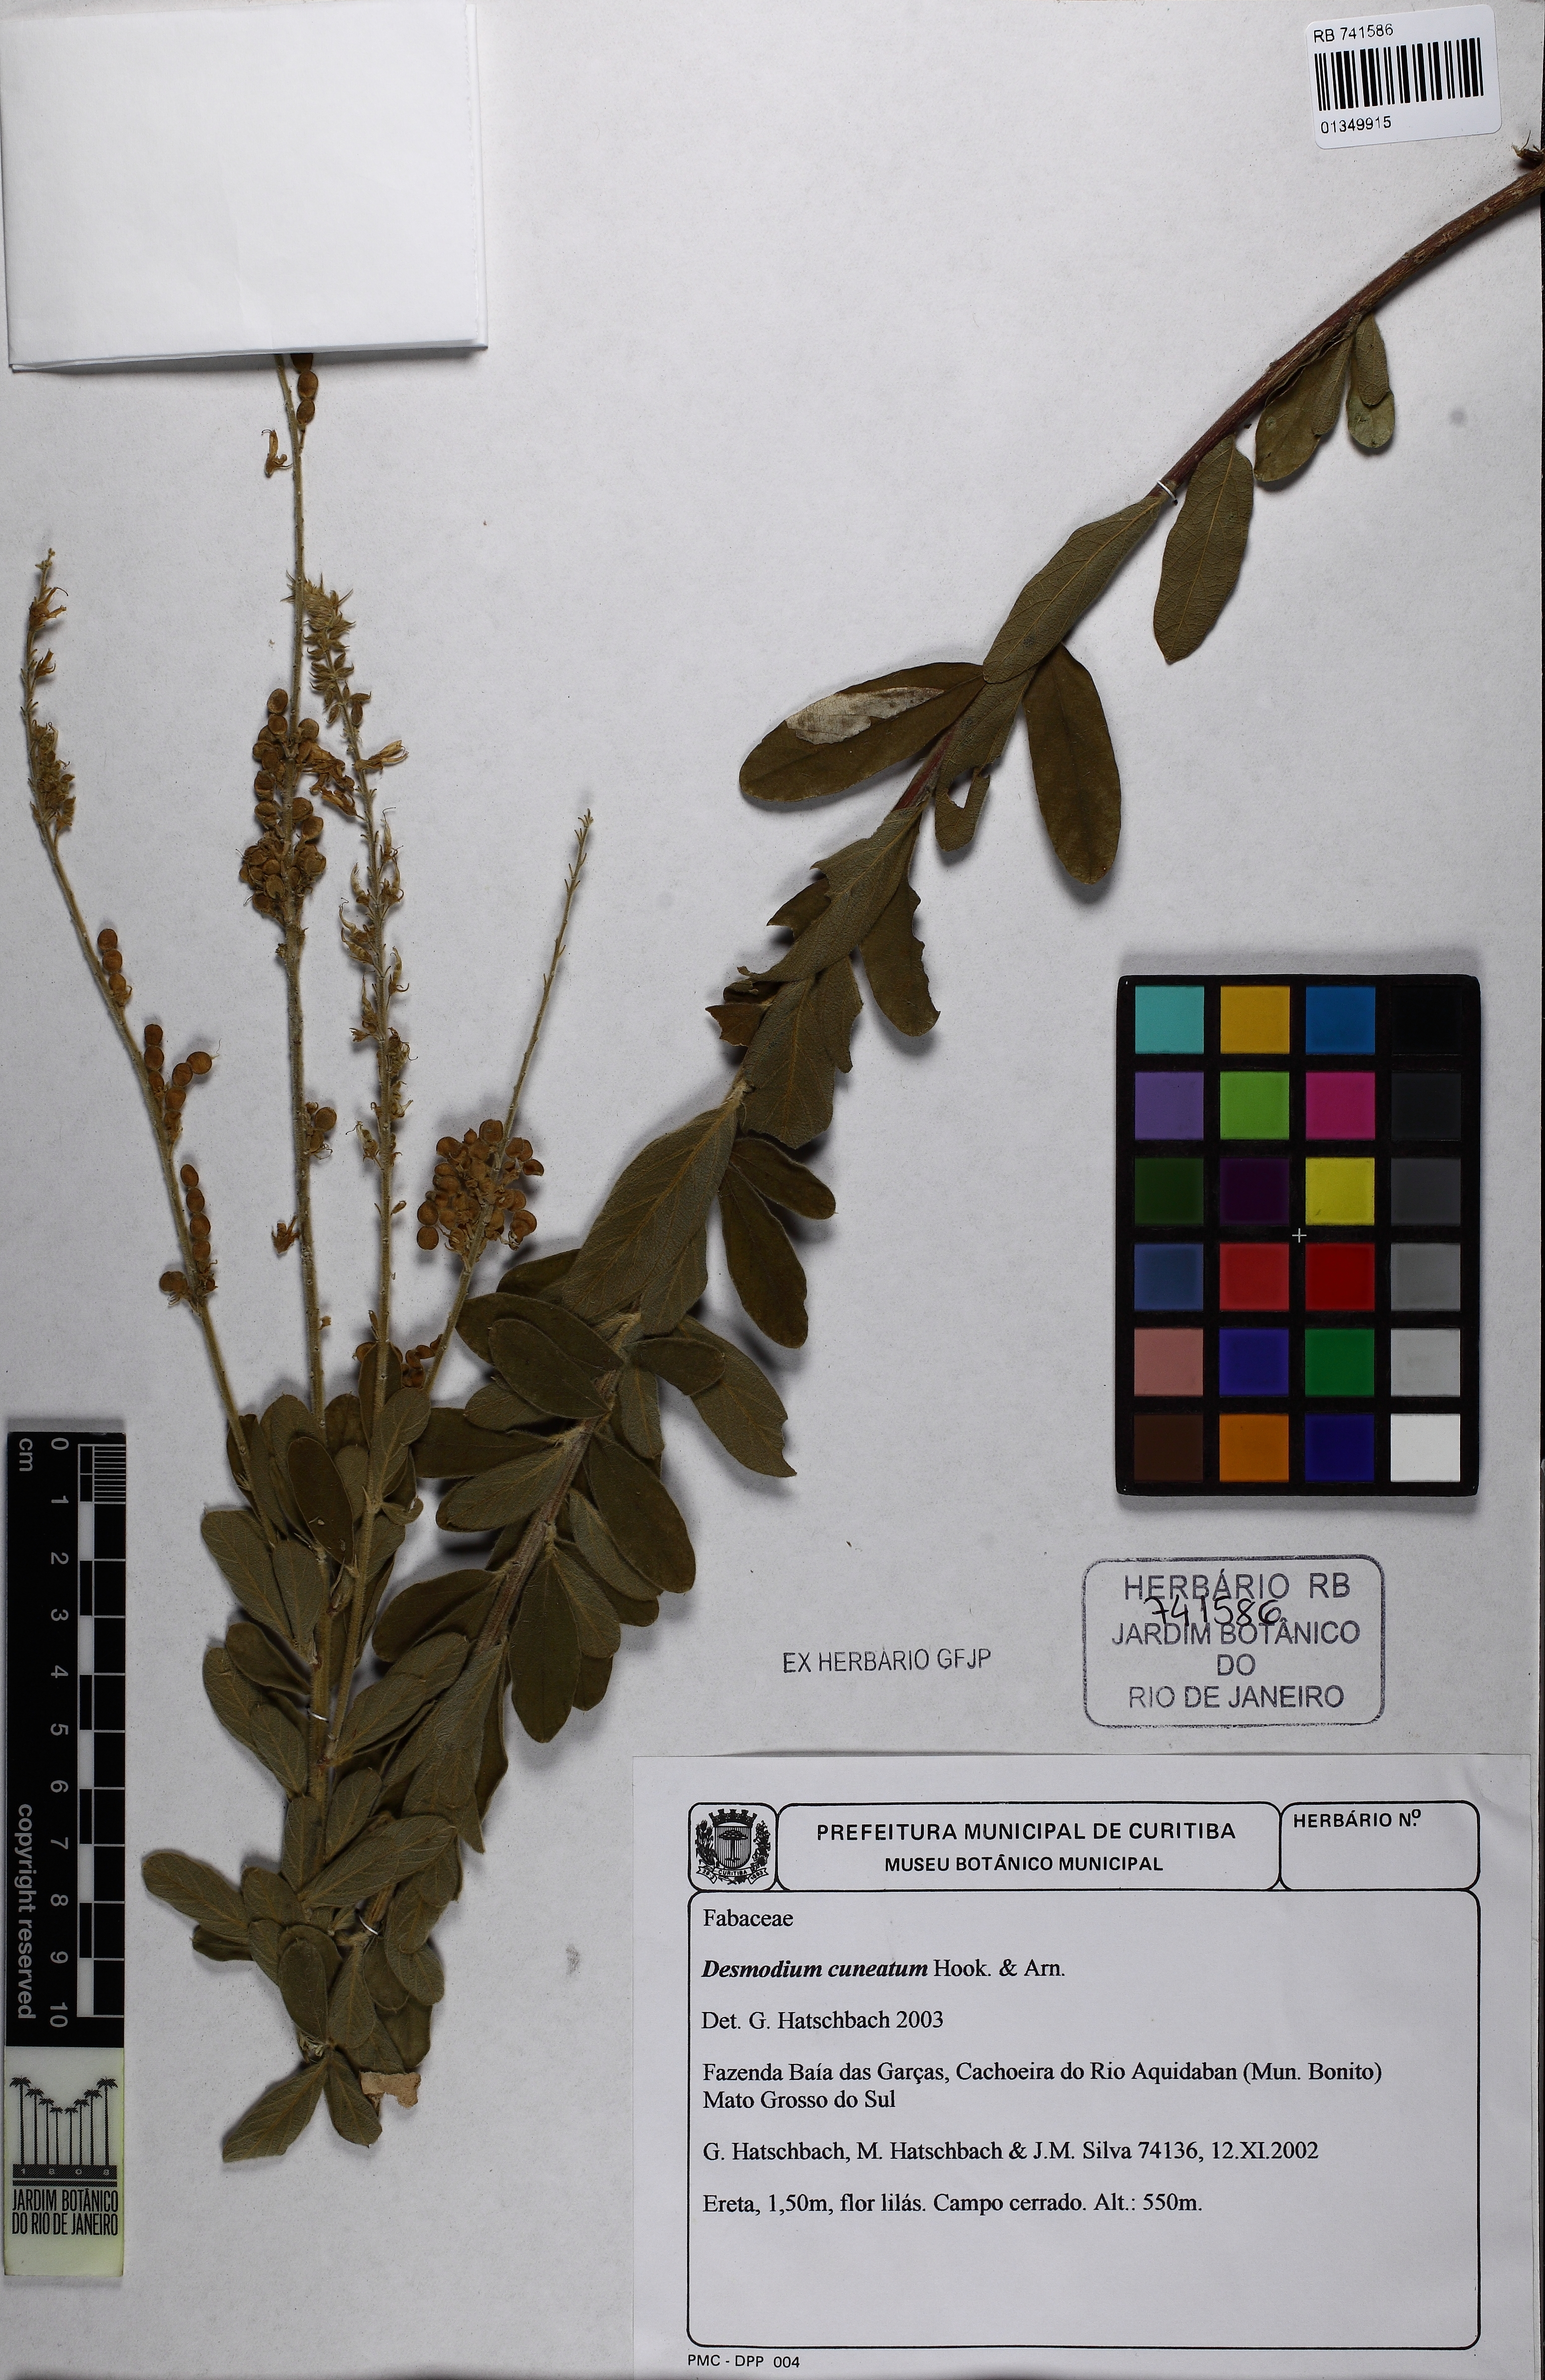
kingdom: Plantae
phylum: Tracheophyta
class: Magnoliopsida
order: Fabales
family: Fabaceae
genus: Desmodium
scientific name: Desmodium cuneatum
